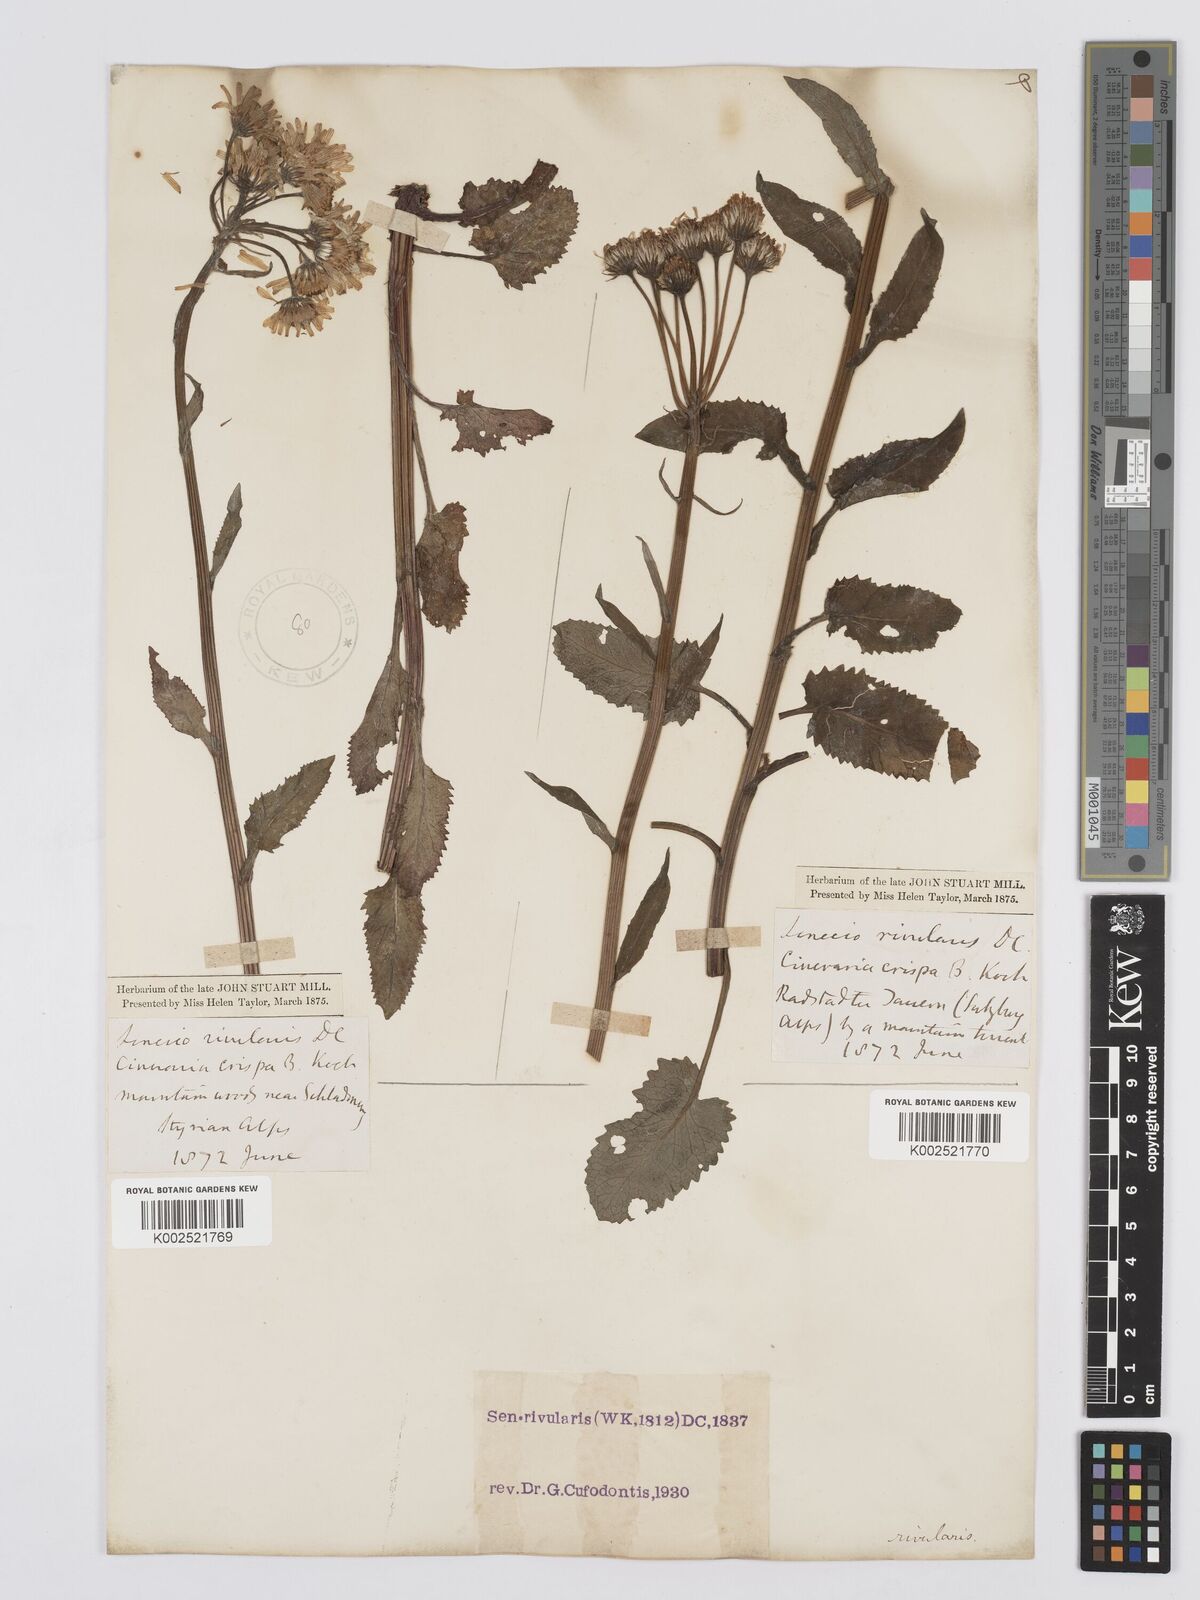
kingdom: Plantae
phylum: Tracheophyta
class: Magnoliopsida
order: Asterales
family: Asteraceae
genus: Tephroseris
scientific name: Tephroseris crispa
